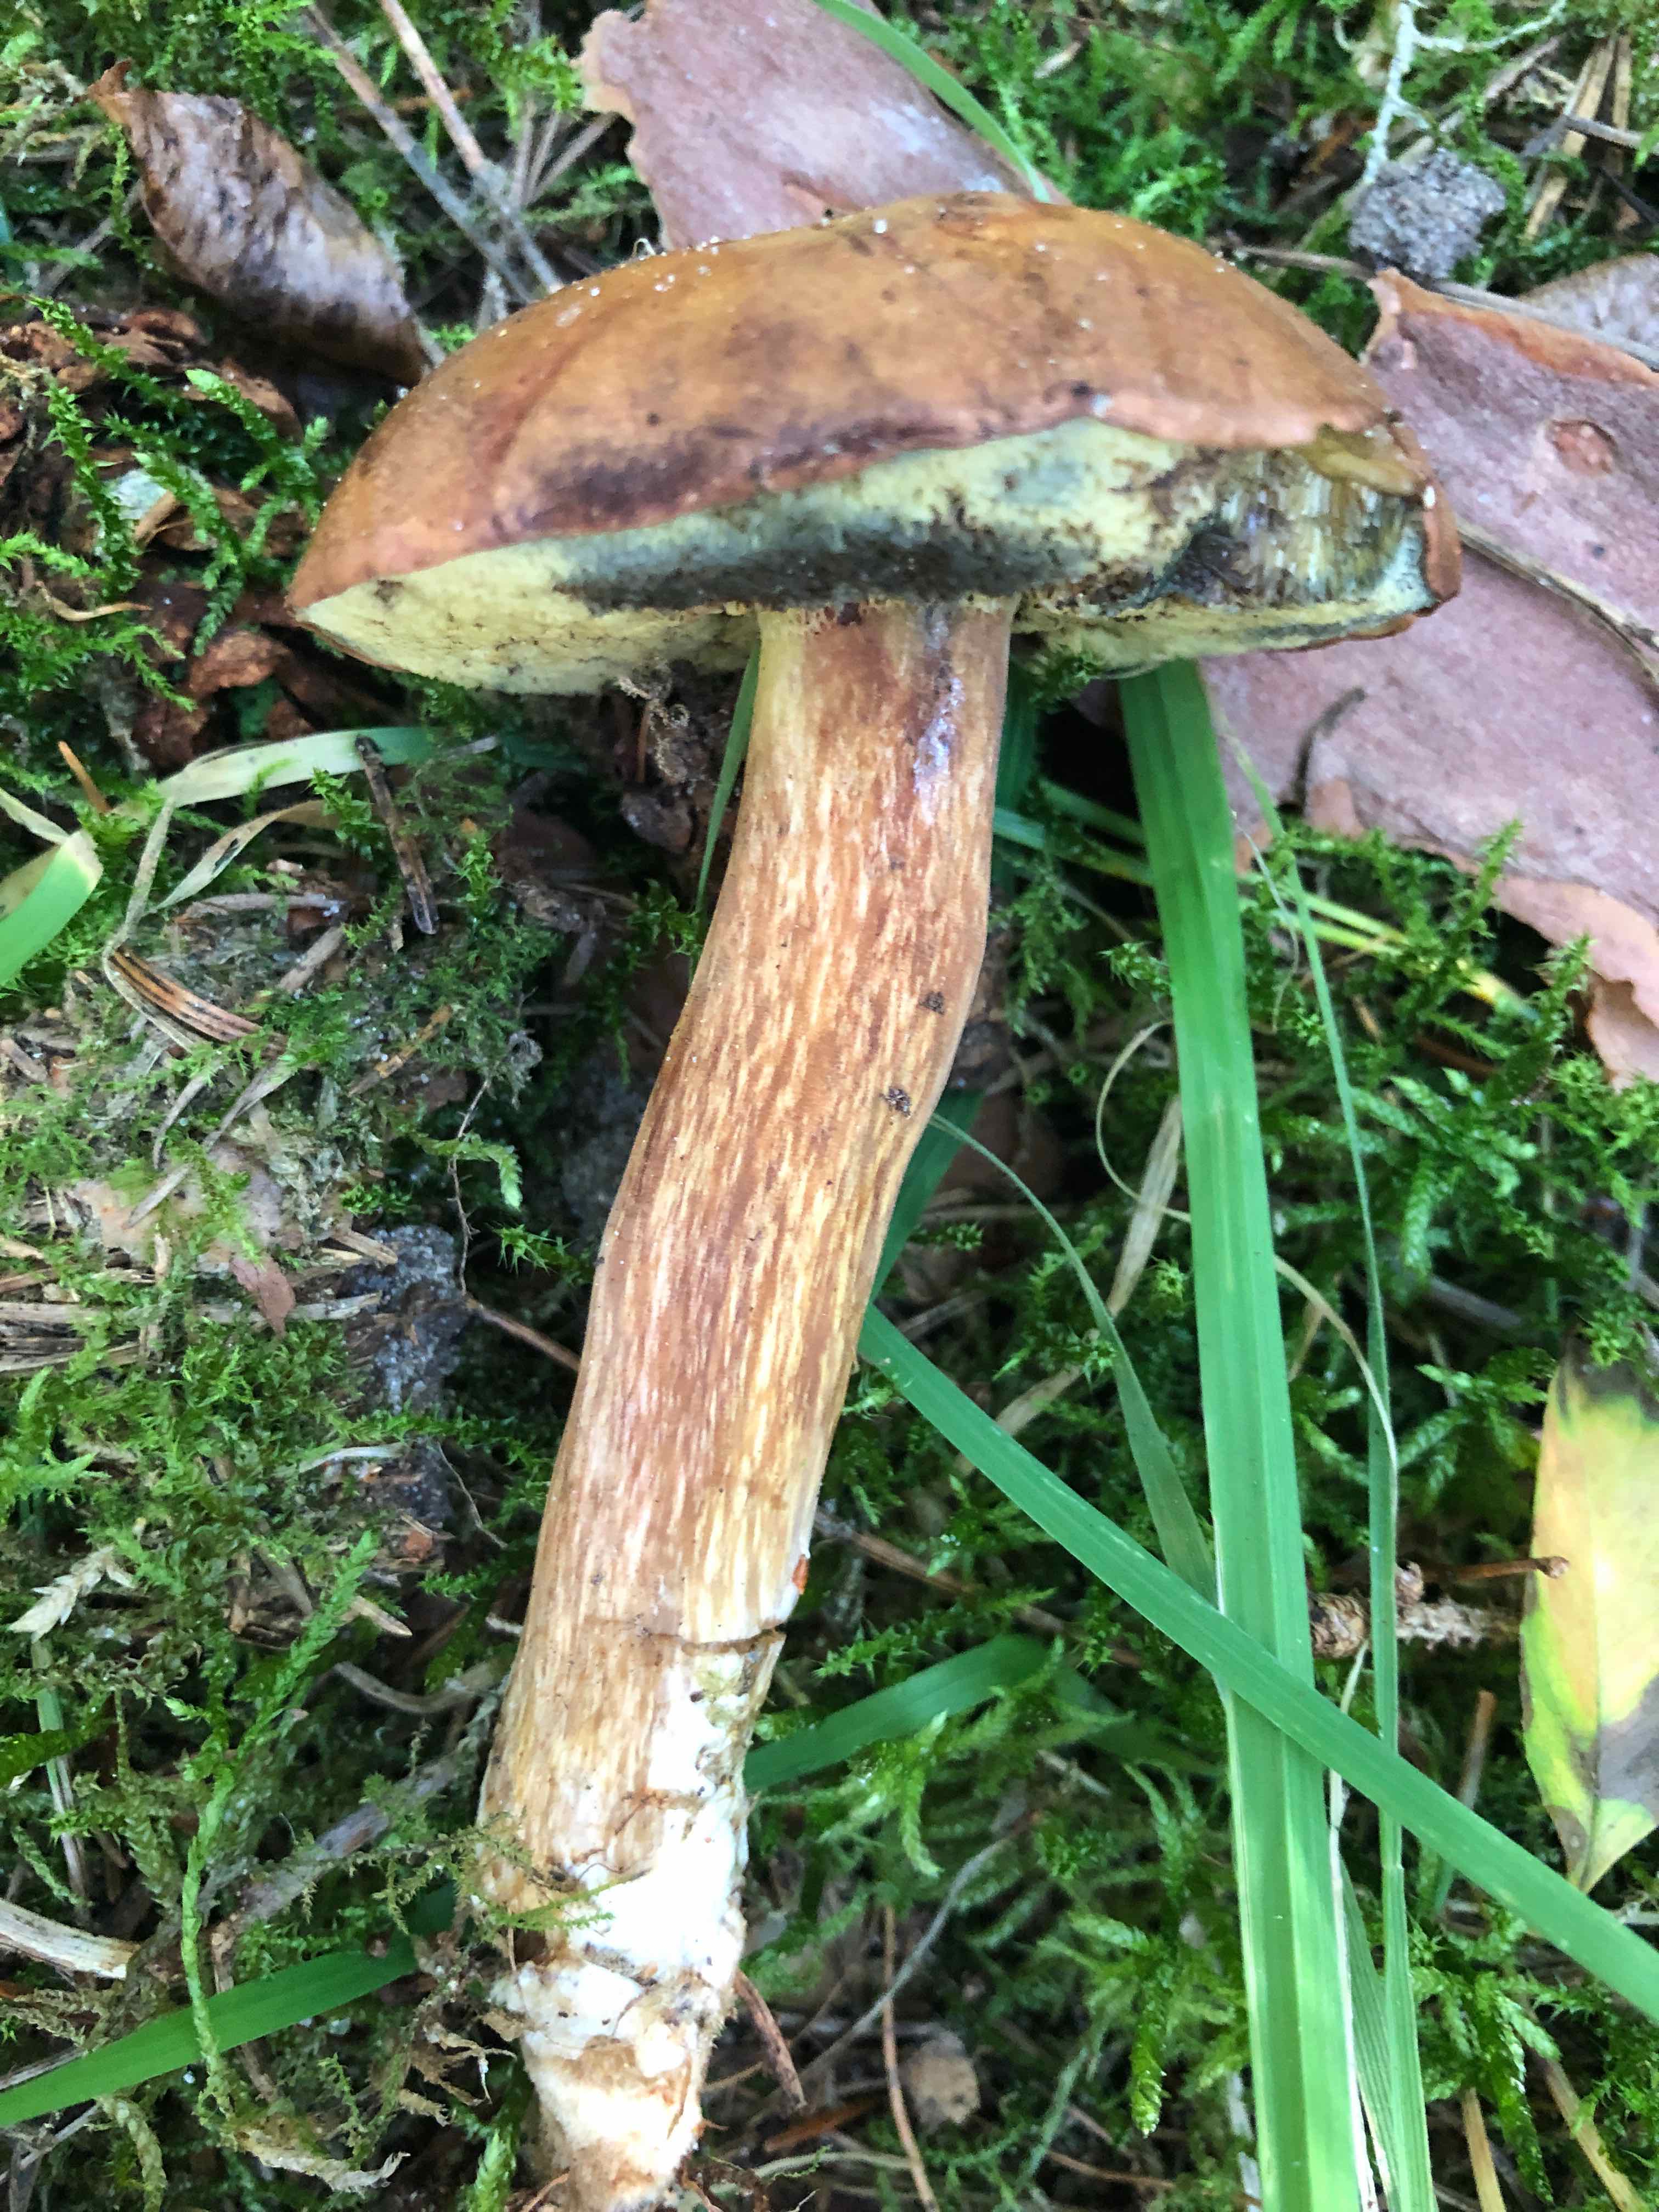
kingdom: Fungi
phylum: Basidiomycota
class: Agaricomycetes
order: Boletales
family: Boletaceae
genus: Imleria
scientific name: Imleria badia
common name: brunstokket rørhat
